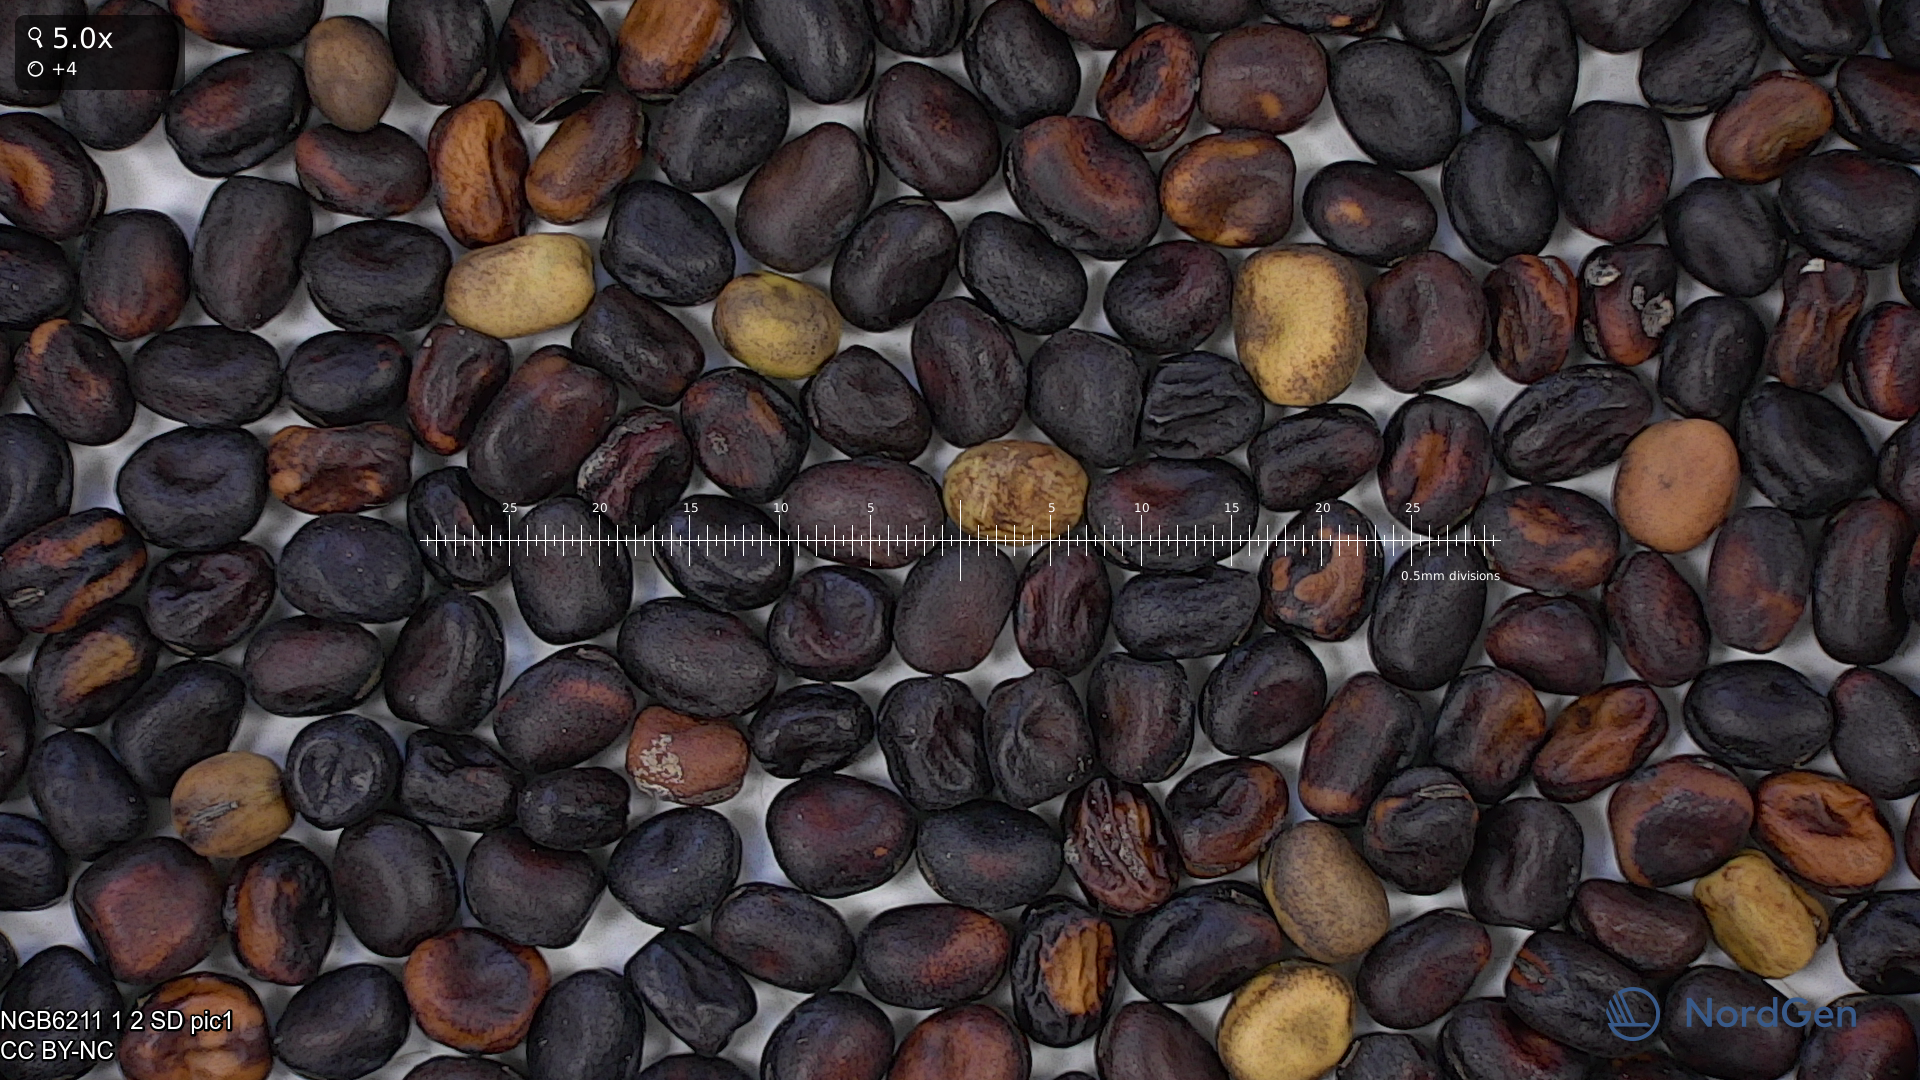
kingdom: Plantae
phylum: Tracheophyta
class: Magnoliopsida
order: Fabales
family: Fabaceae
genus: Vicia
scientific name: Vicia faba
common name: Broad bean
